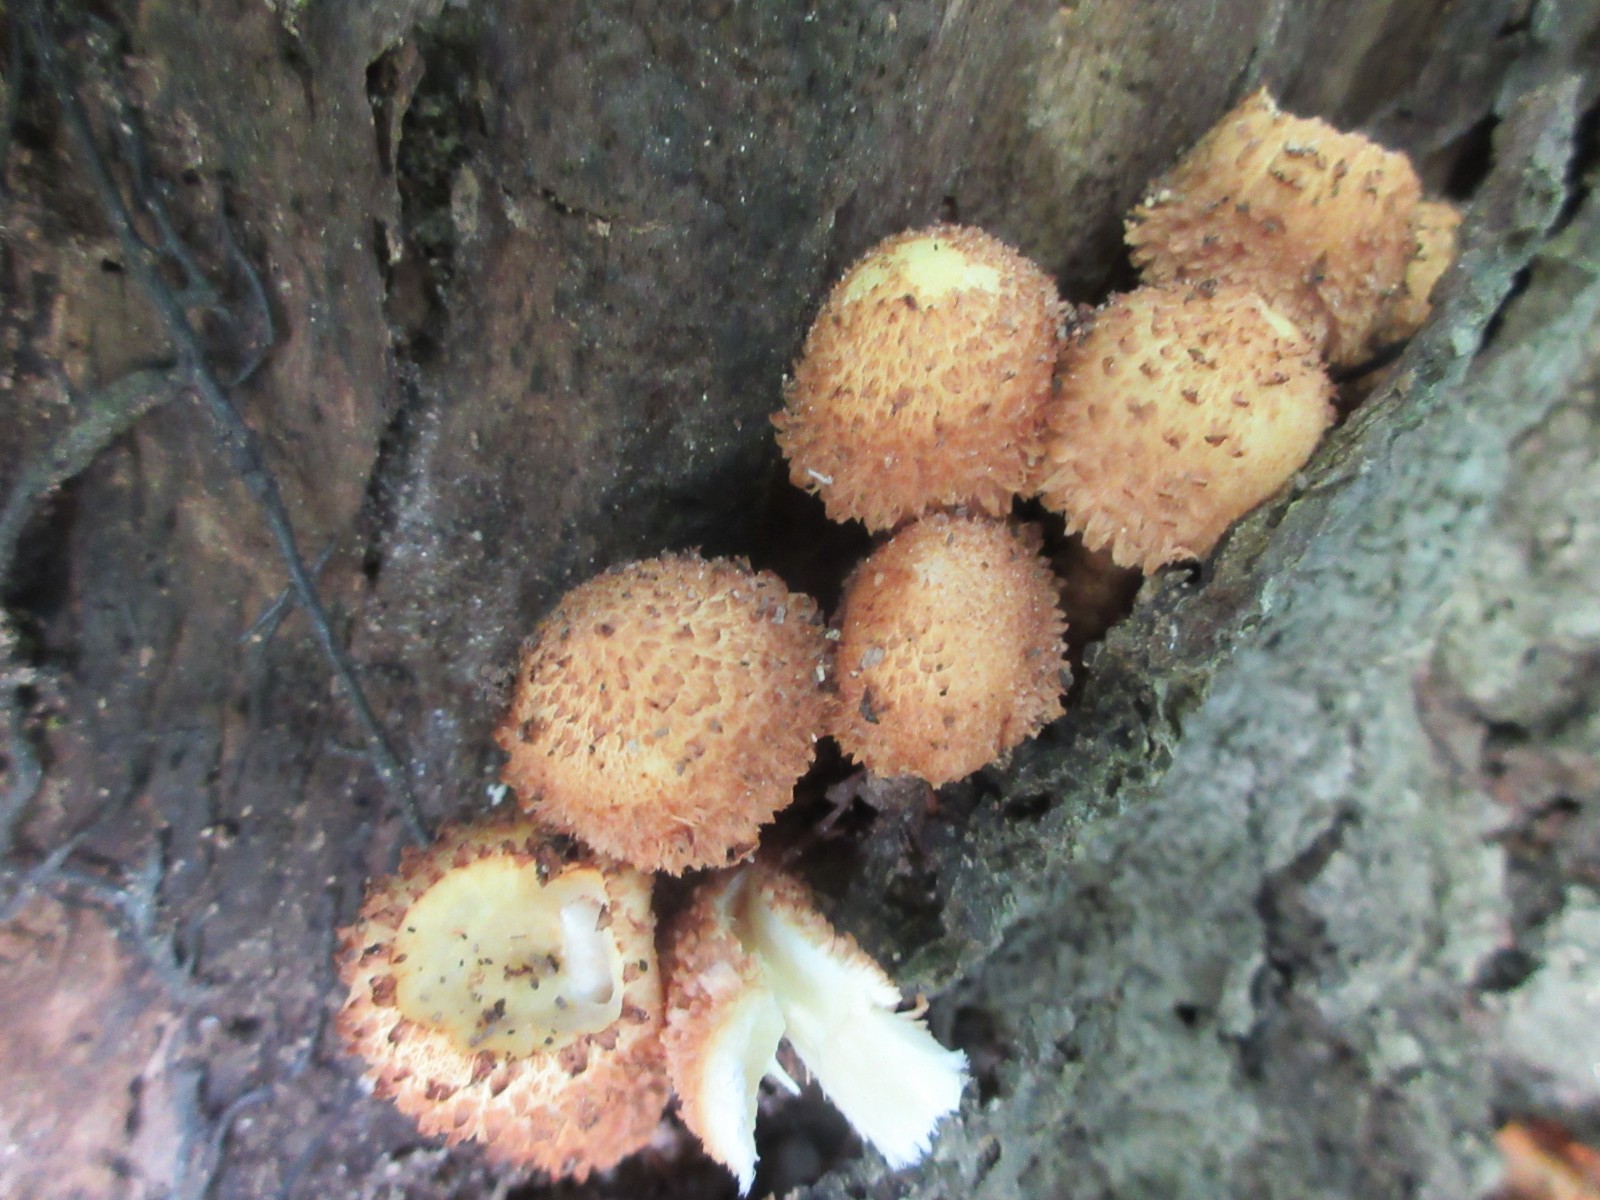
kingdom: Fungi
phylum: Basidiomycota
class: Agaricomycetes
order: Agaricales
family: Strophariaceae
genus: Pholiota
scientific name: Pholiota squarrosa
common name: krumskællet skælhat
